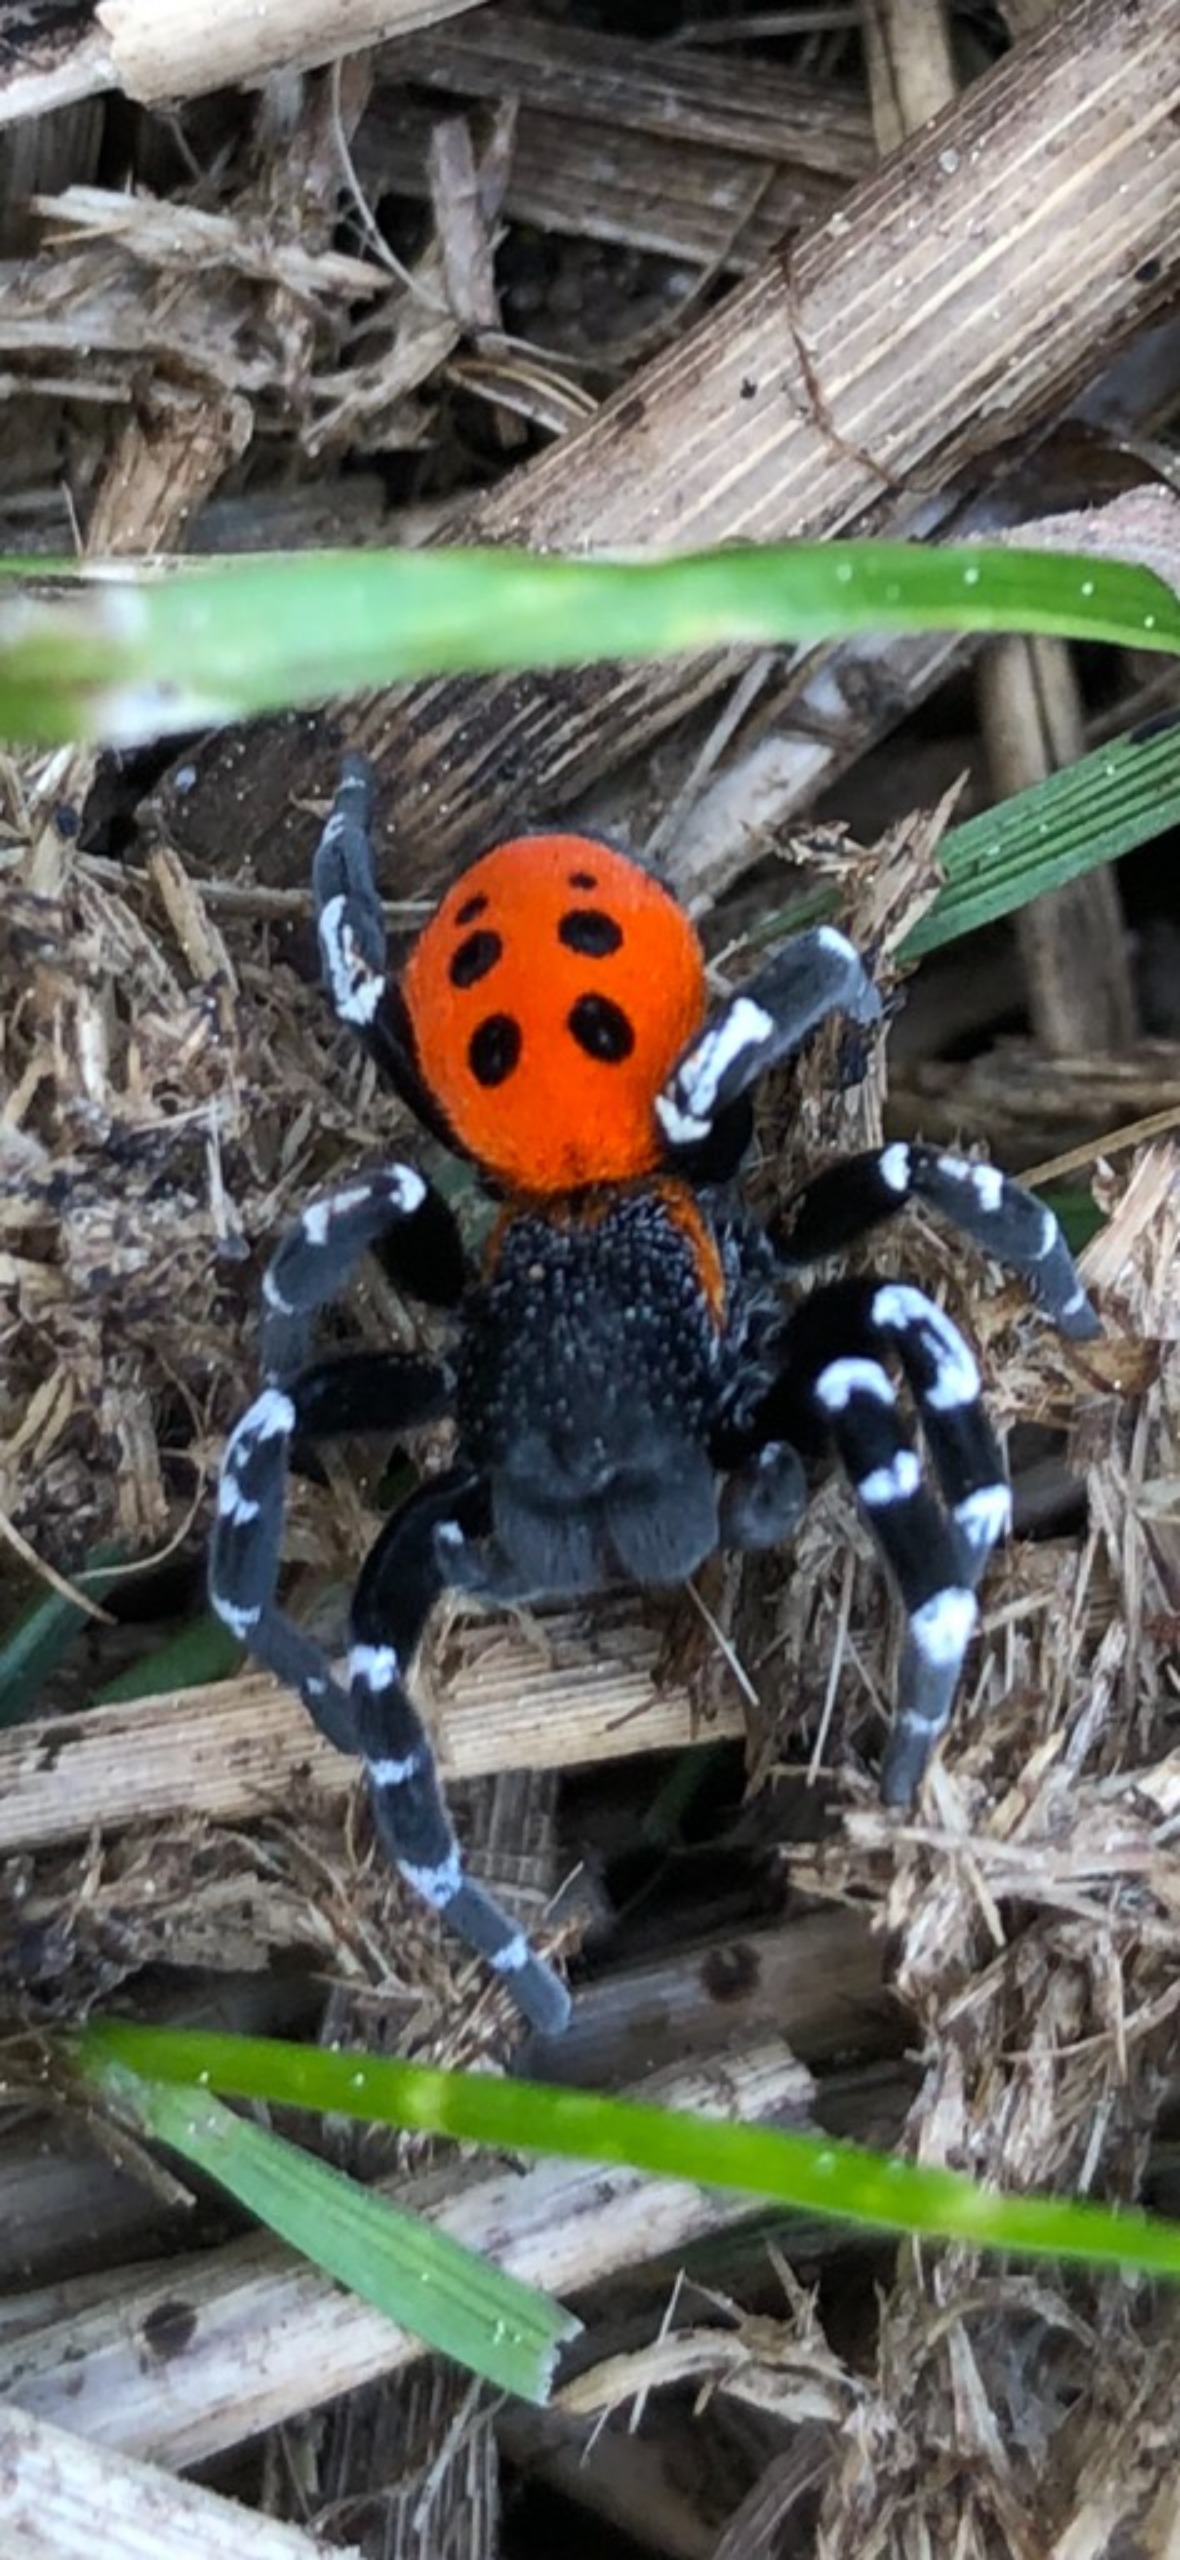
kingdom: Animalia
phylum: Arthropoda
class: Arachnida
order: Araneae
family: Eresidae
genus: Eresus
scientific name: Eresus sandaliatus
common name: Mariehøneedderkop
